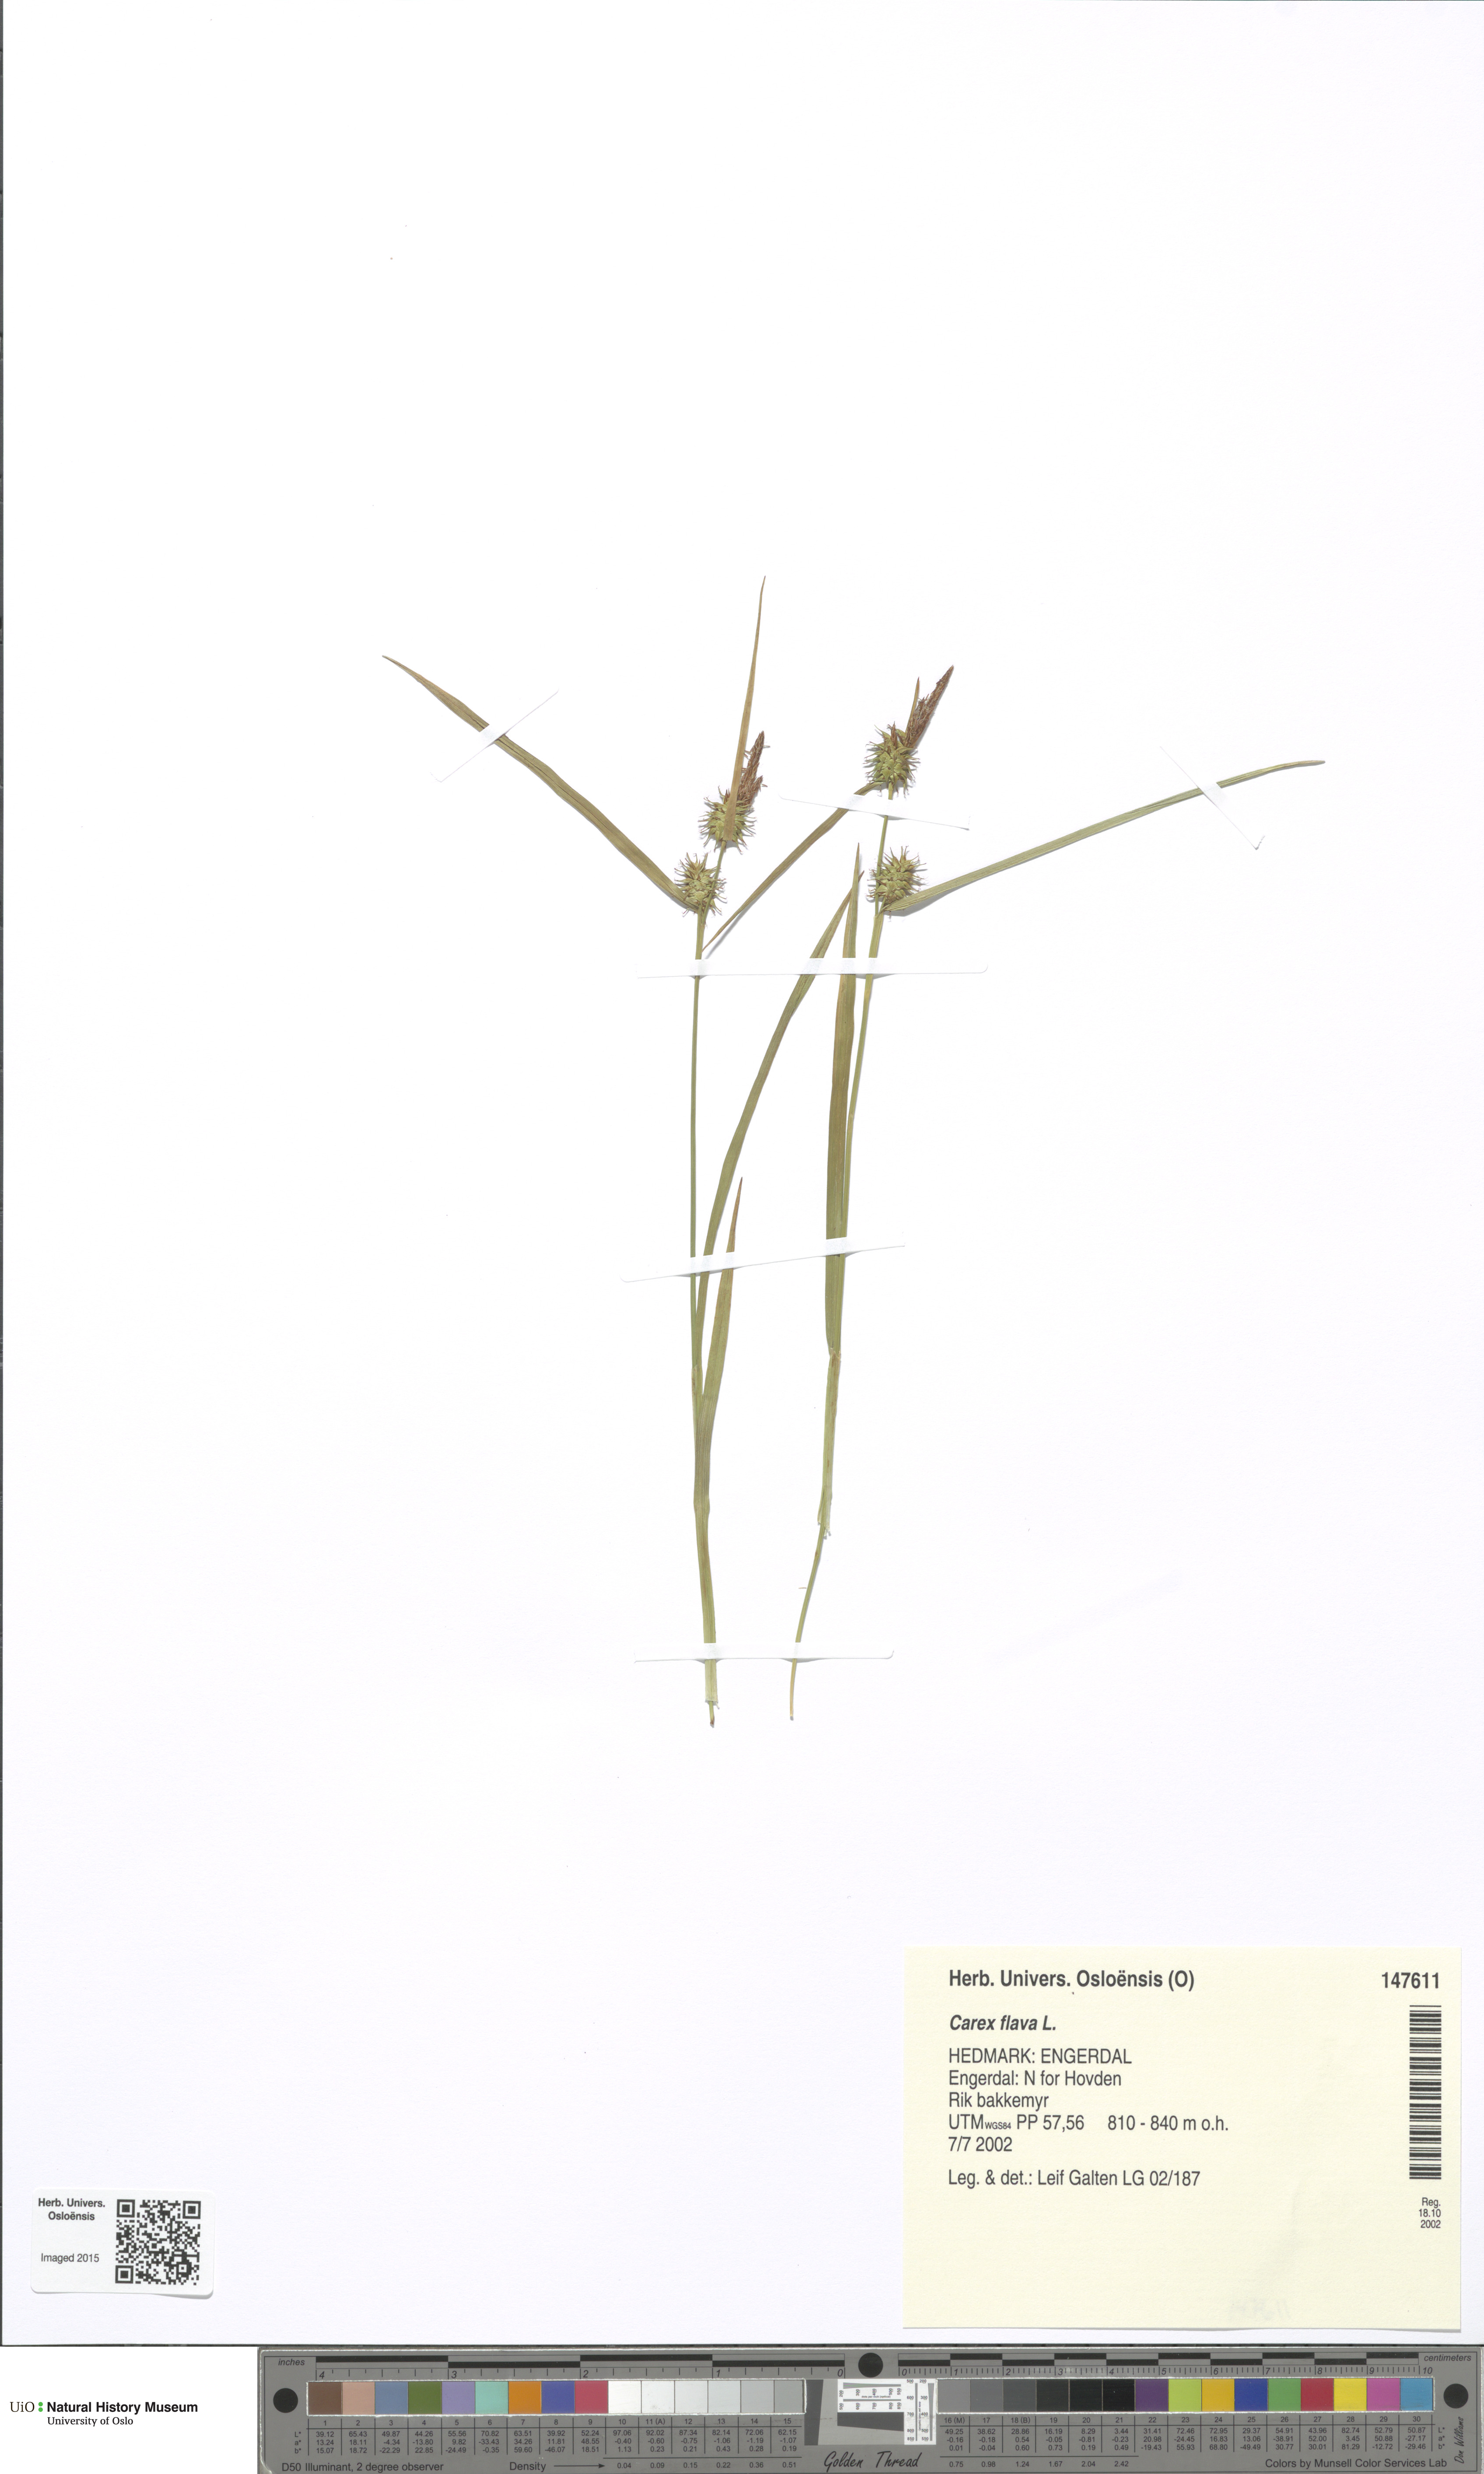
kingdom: Plantae
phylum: Tracheophyta
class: Liliopsida
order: Poales
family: Cyperaceae
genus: Carex
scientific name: Carex flava
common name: Large yellow-sedge
